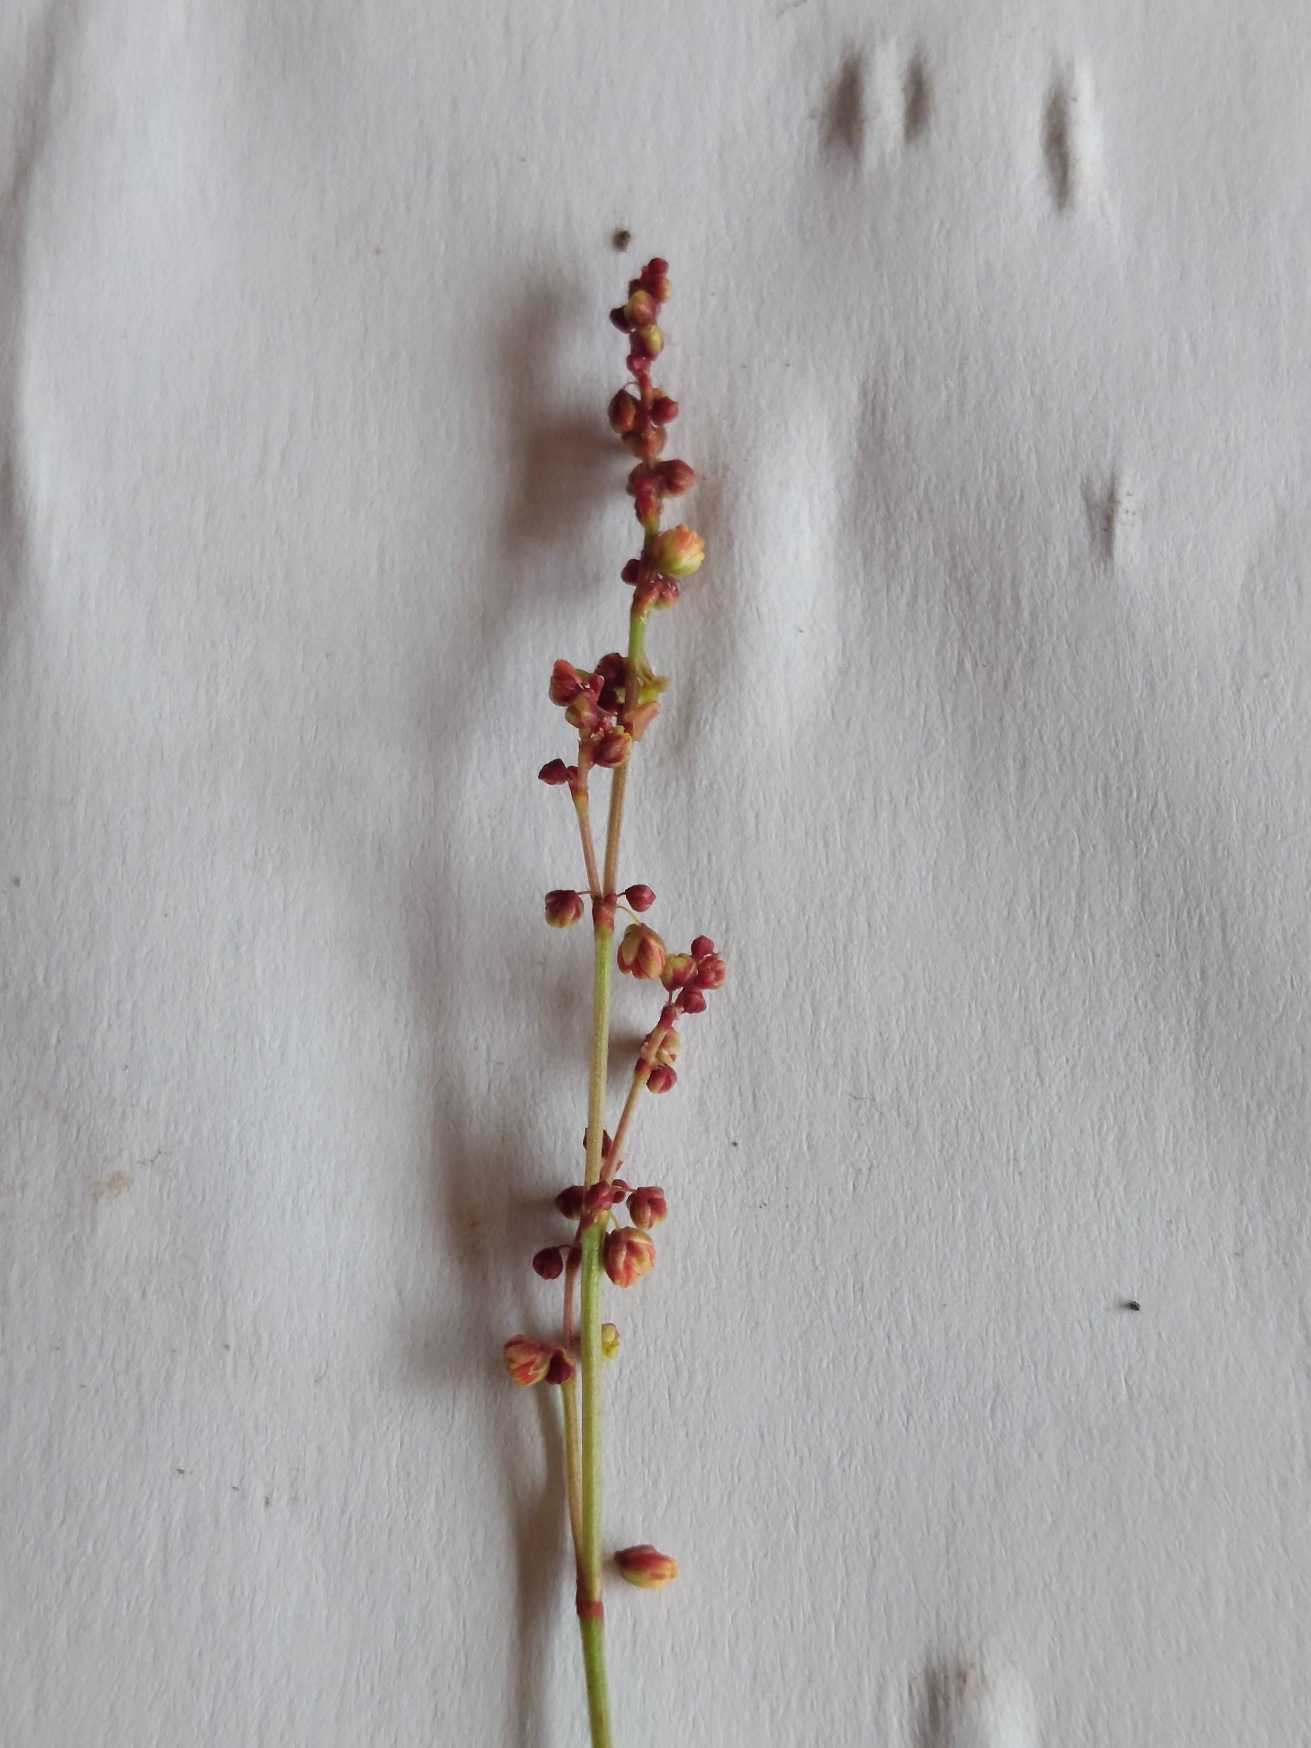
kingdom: Plantae
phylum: Tracheophyta
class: Magnoliopsida
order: Caryophyllales
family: Polygonaceae
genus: Rumex
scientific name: Rumex acetosella
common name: Rødknæ
